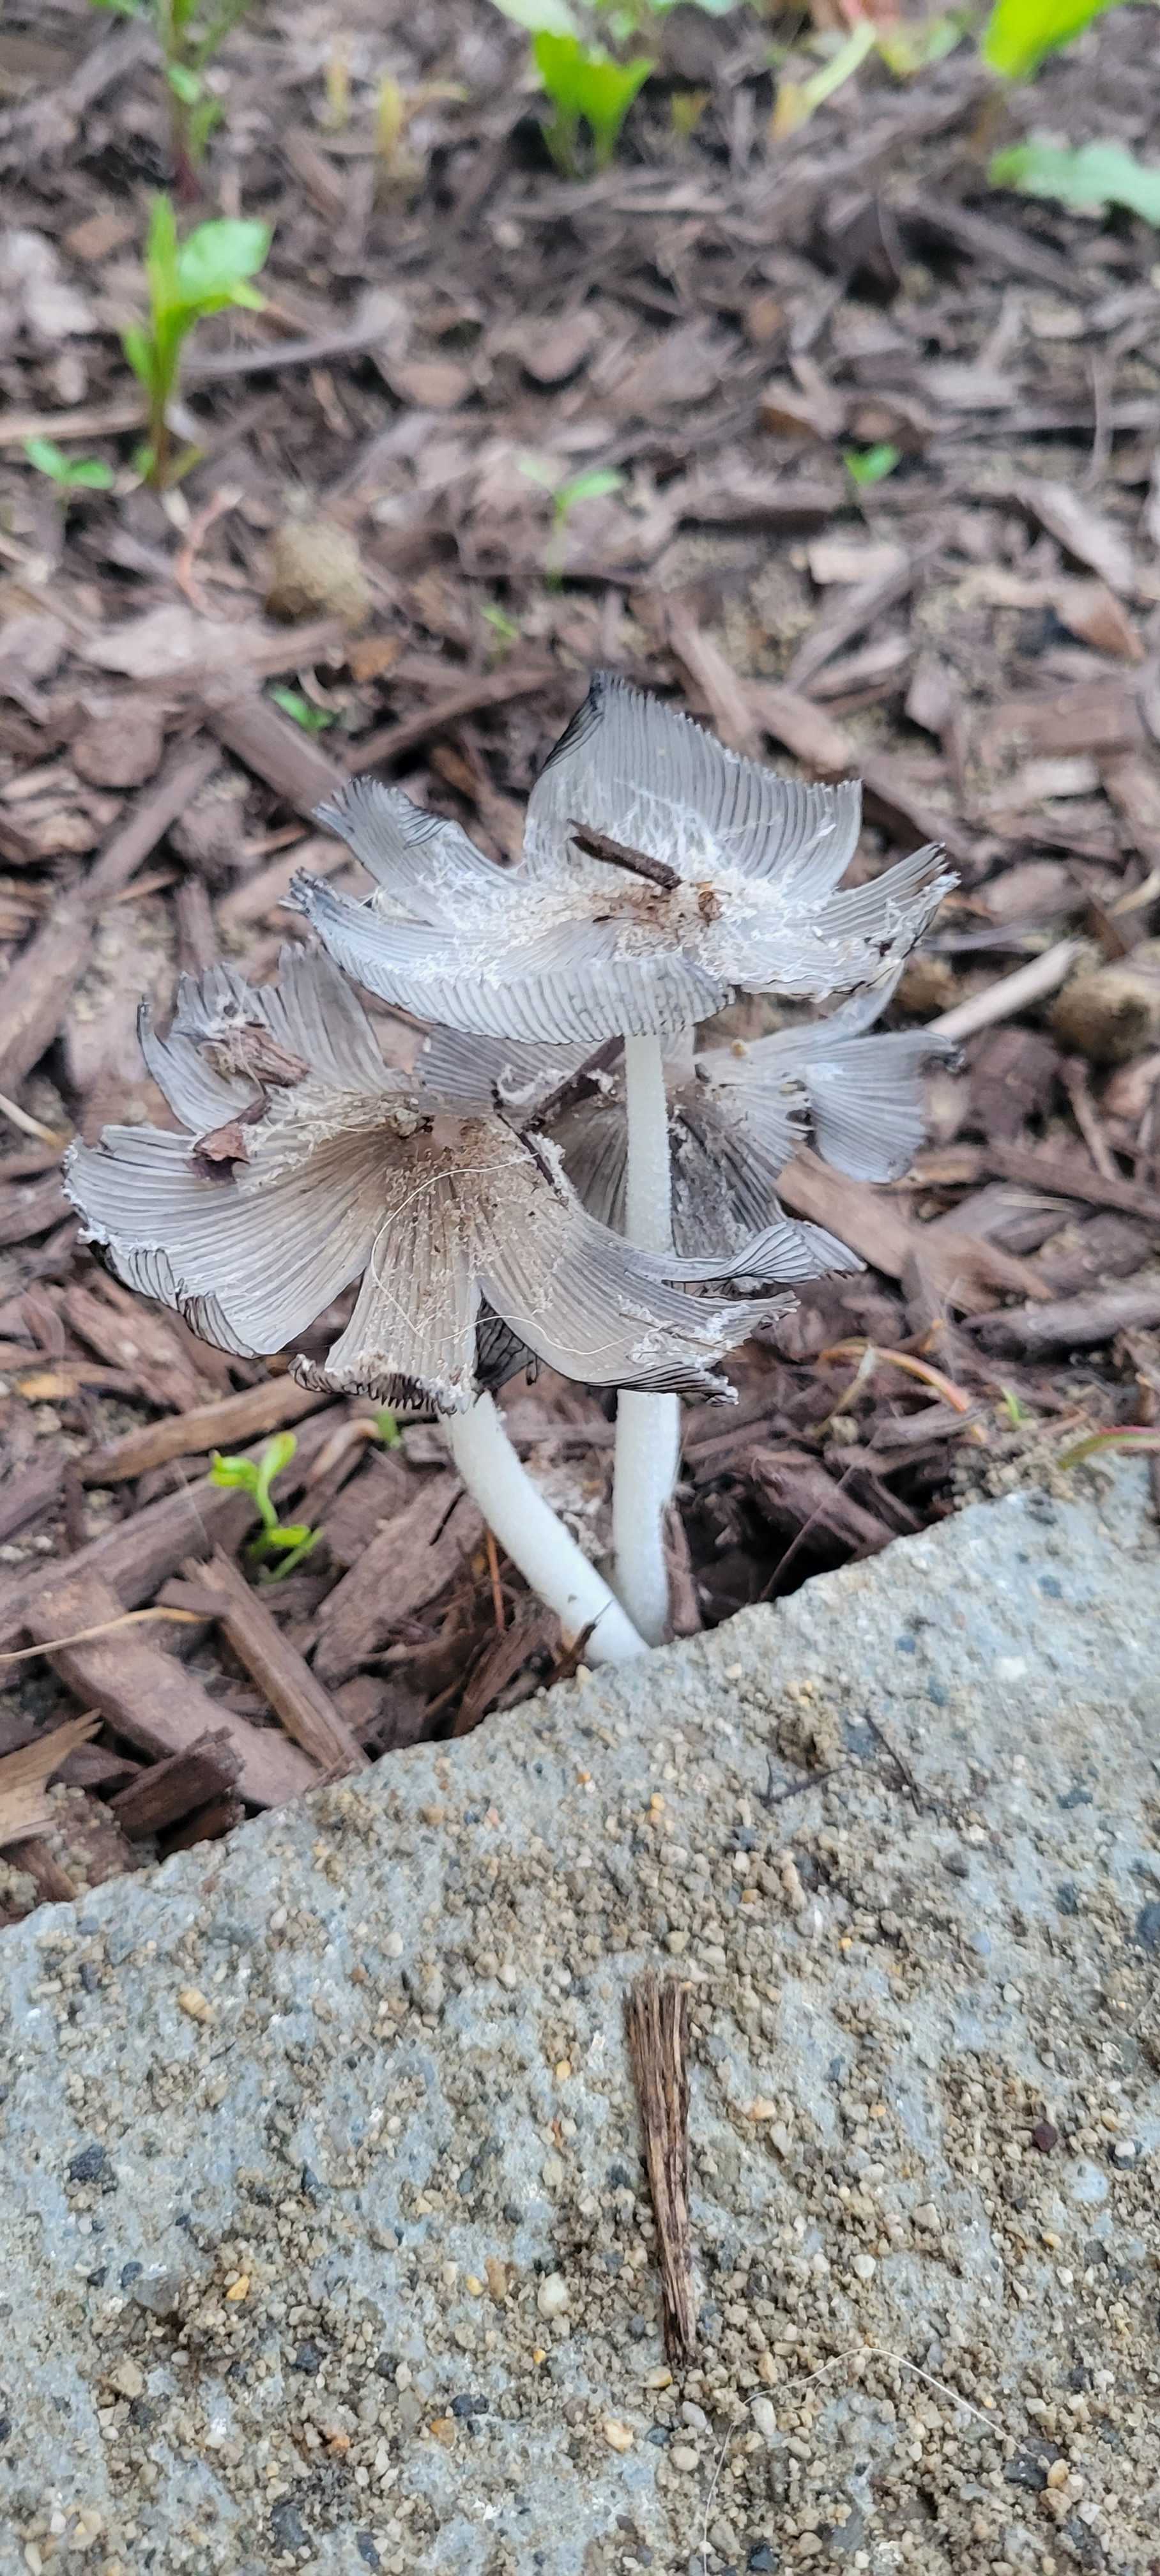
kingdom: Fungi
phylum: Basidiomycota
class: Agaricomycetes
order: Agaricales
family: Psathyrellaceae
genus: Coprinopsis
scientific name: Coprinopsis
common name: blækhat
